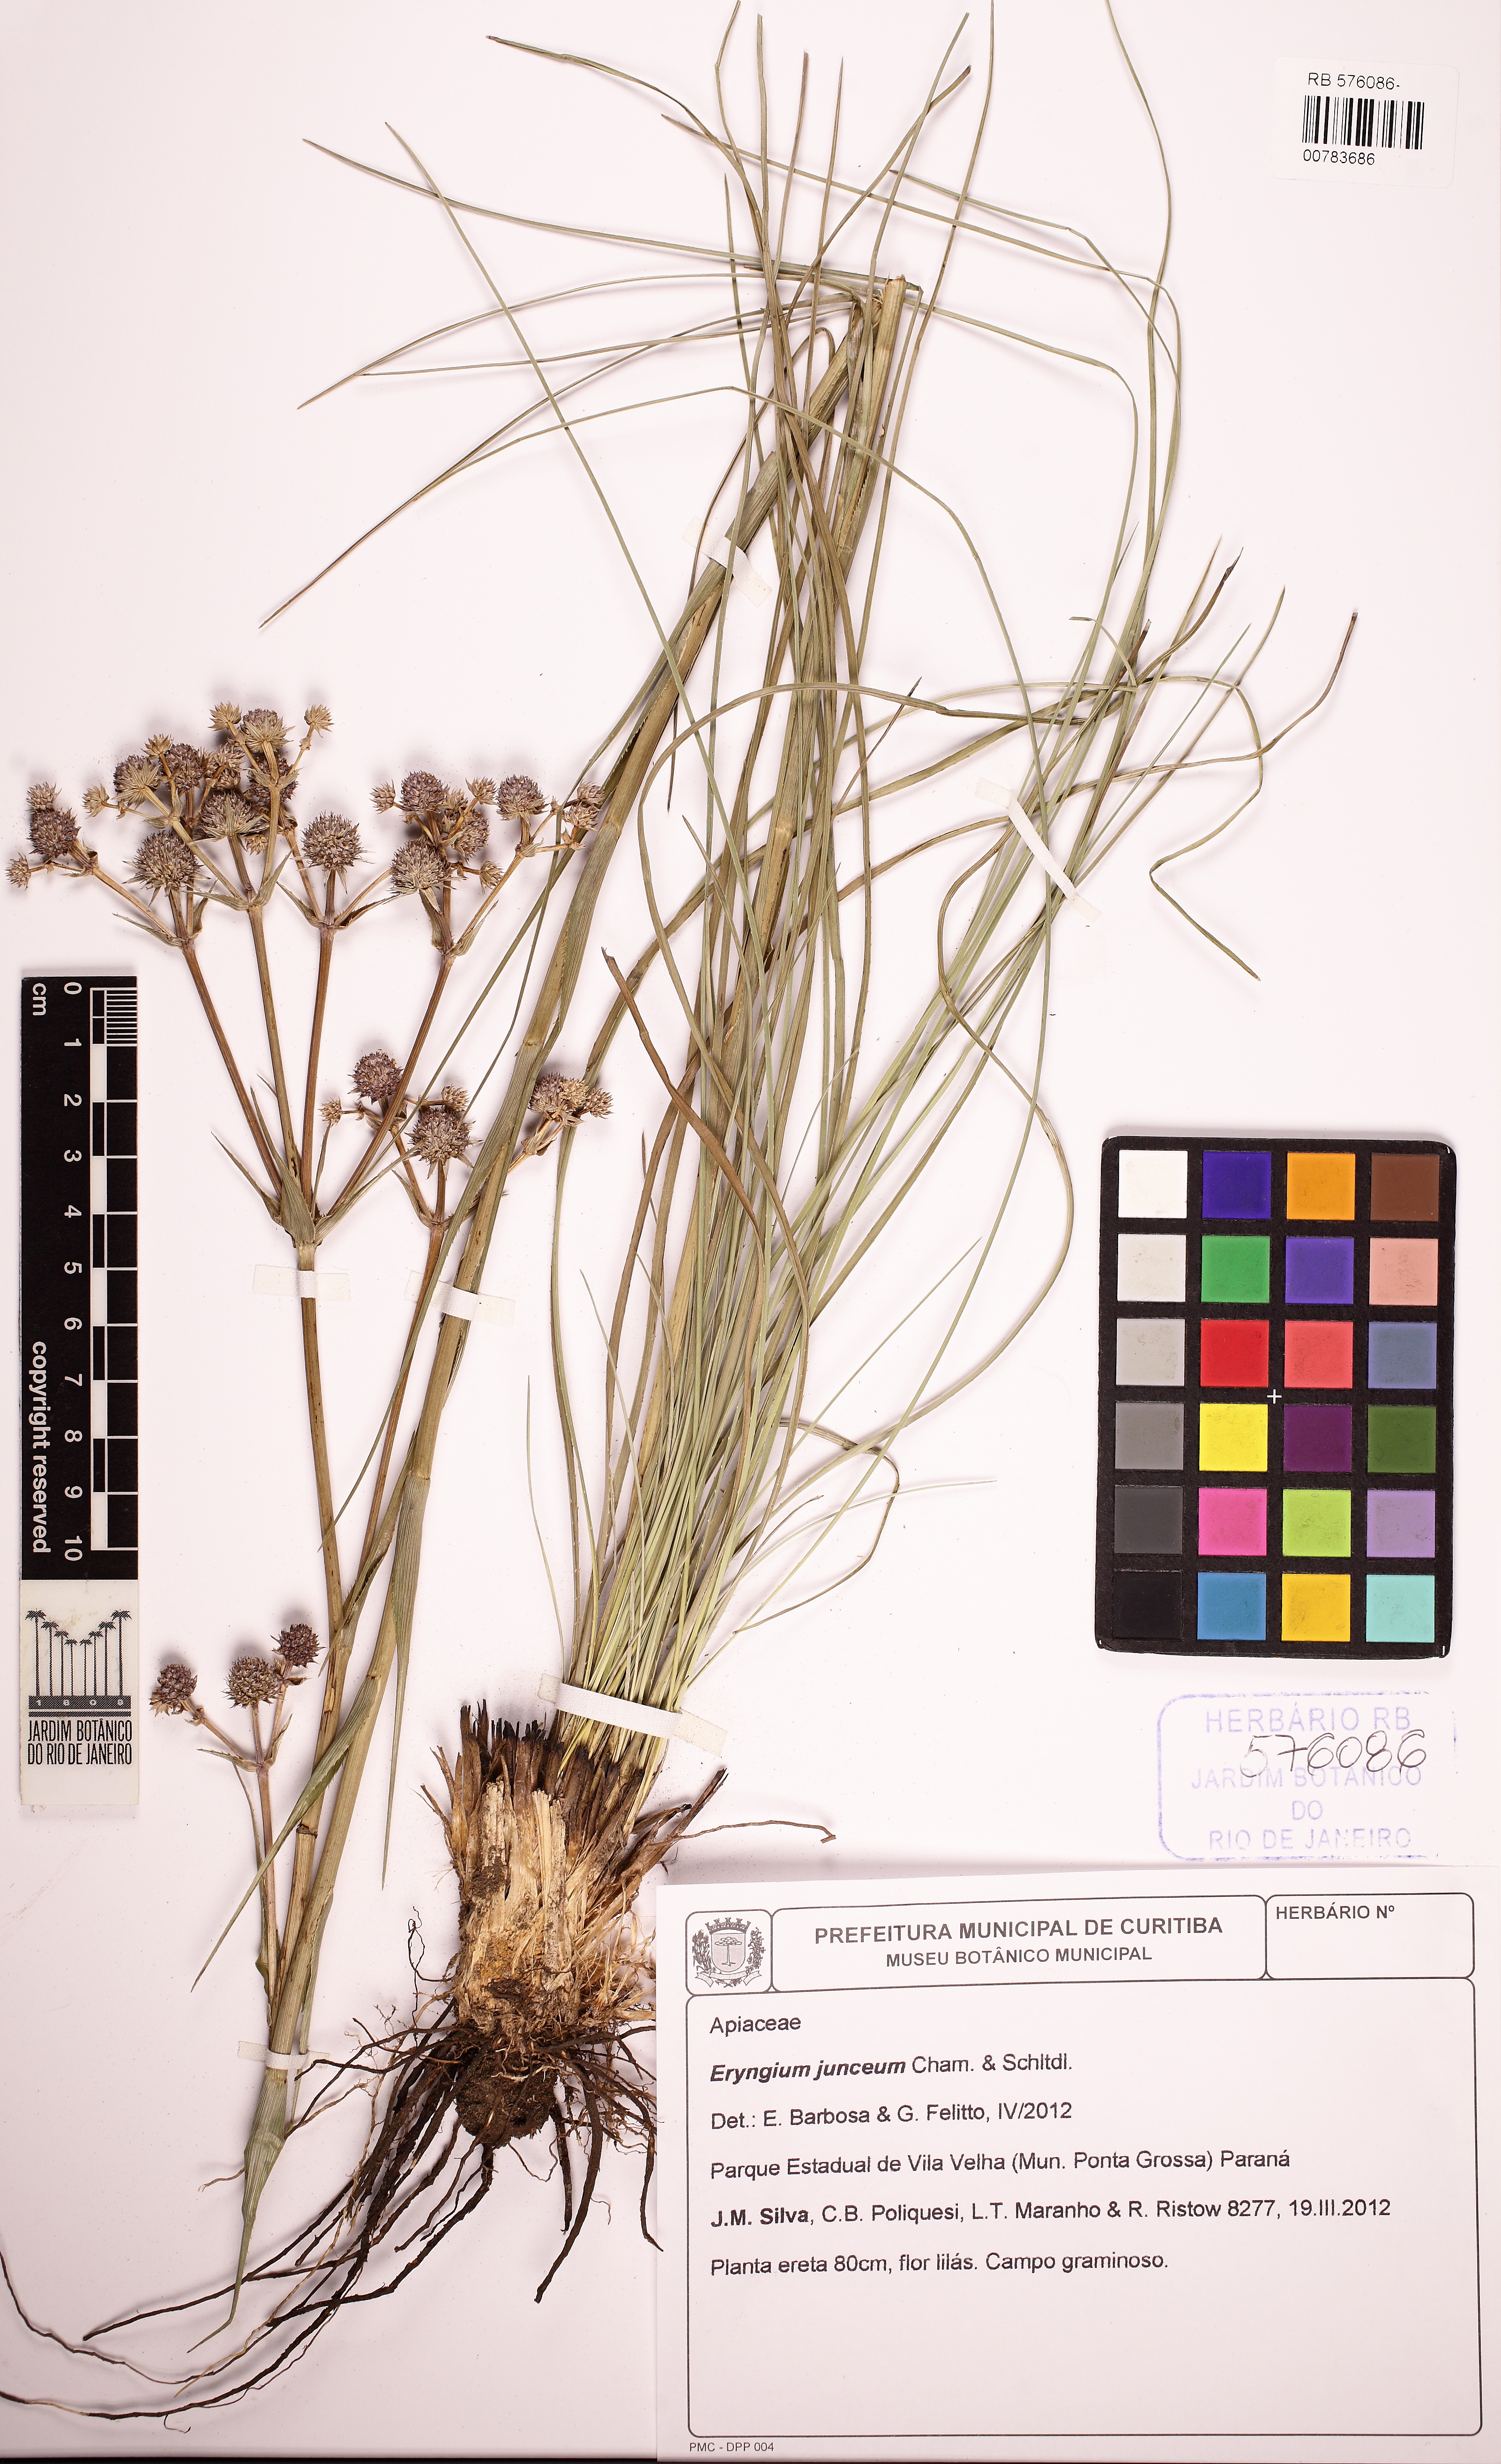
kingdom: Plantae
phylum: Tracheophyta
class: Magnoliopsida
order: Apiales
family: Apiaceae
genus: Eryngium
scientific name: Eryngium junceum
